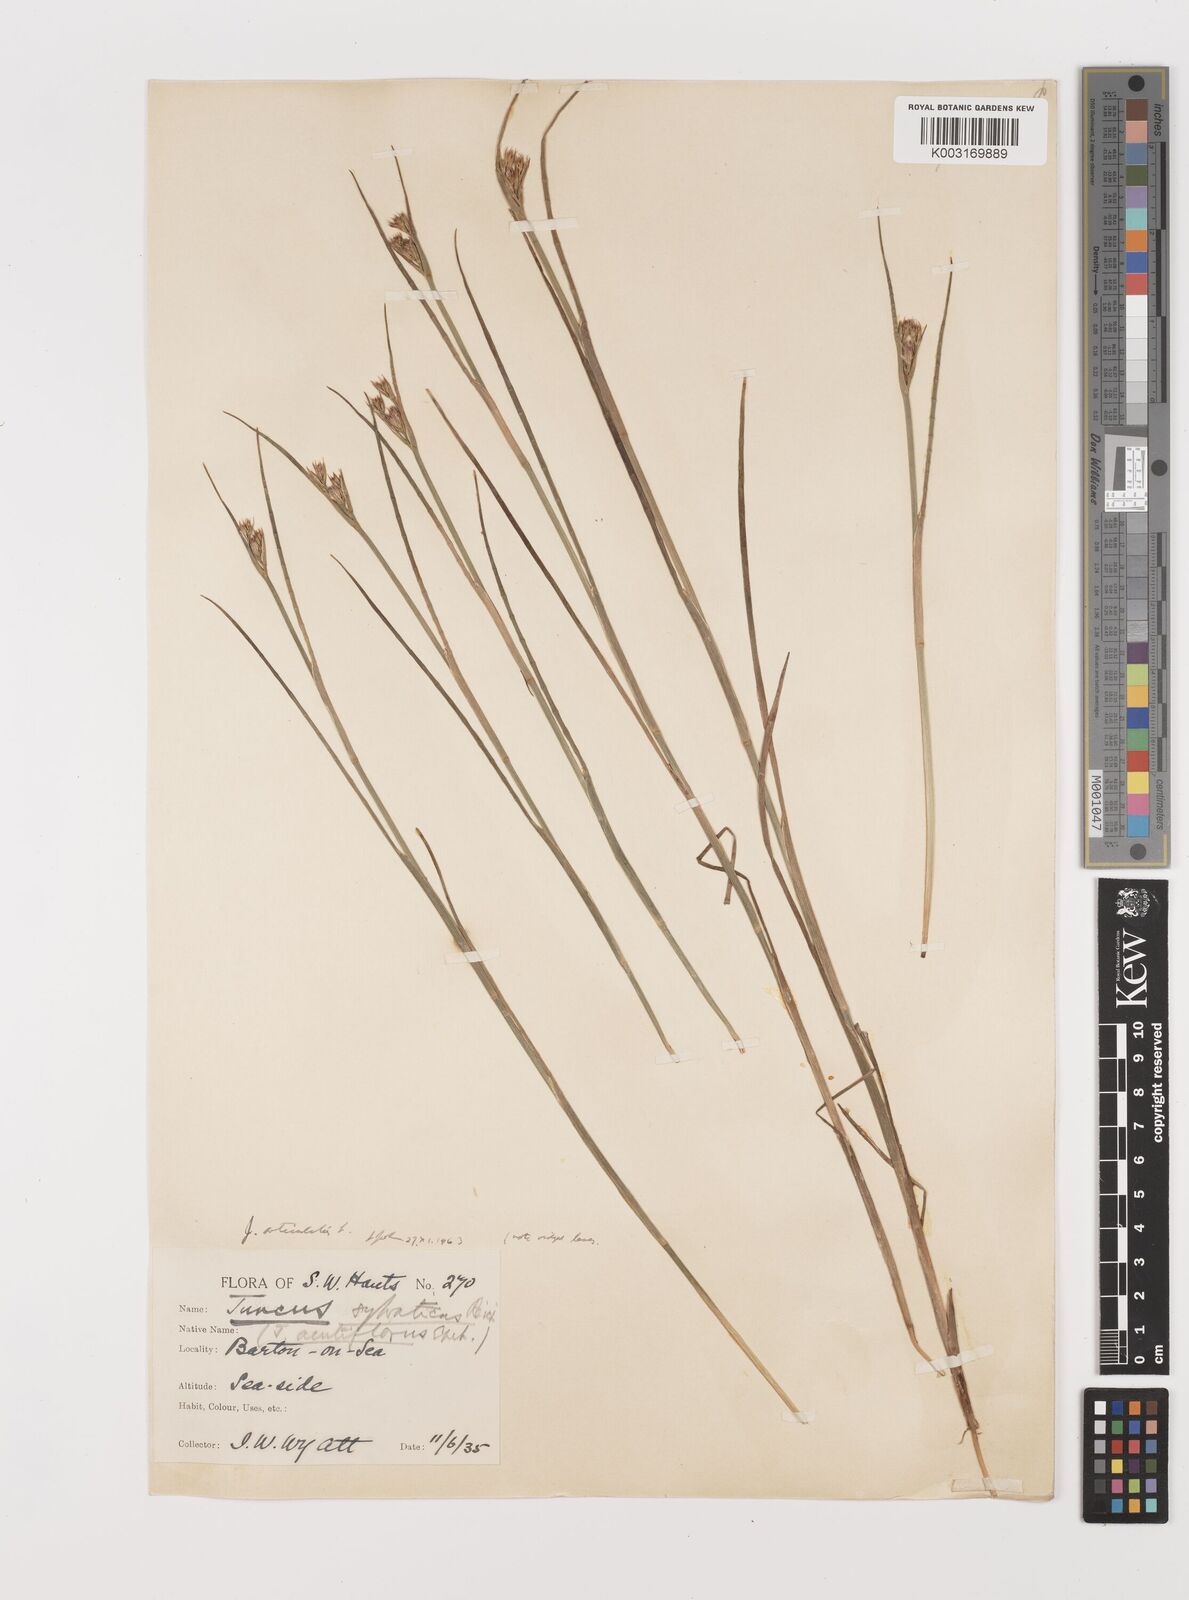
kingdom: Plantae
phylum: Tracheophyta
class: Liliopsida
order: Poales
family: Juncaceae
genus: Juncus
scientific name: Juncus articulatus
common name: Jointed rush
